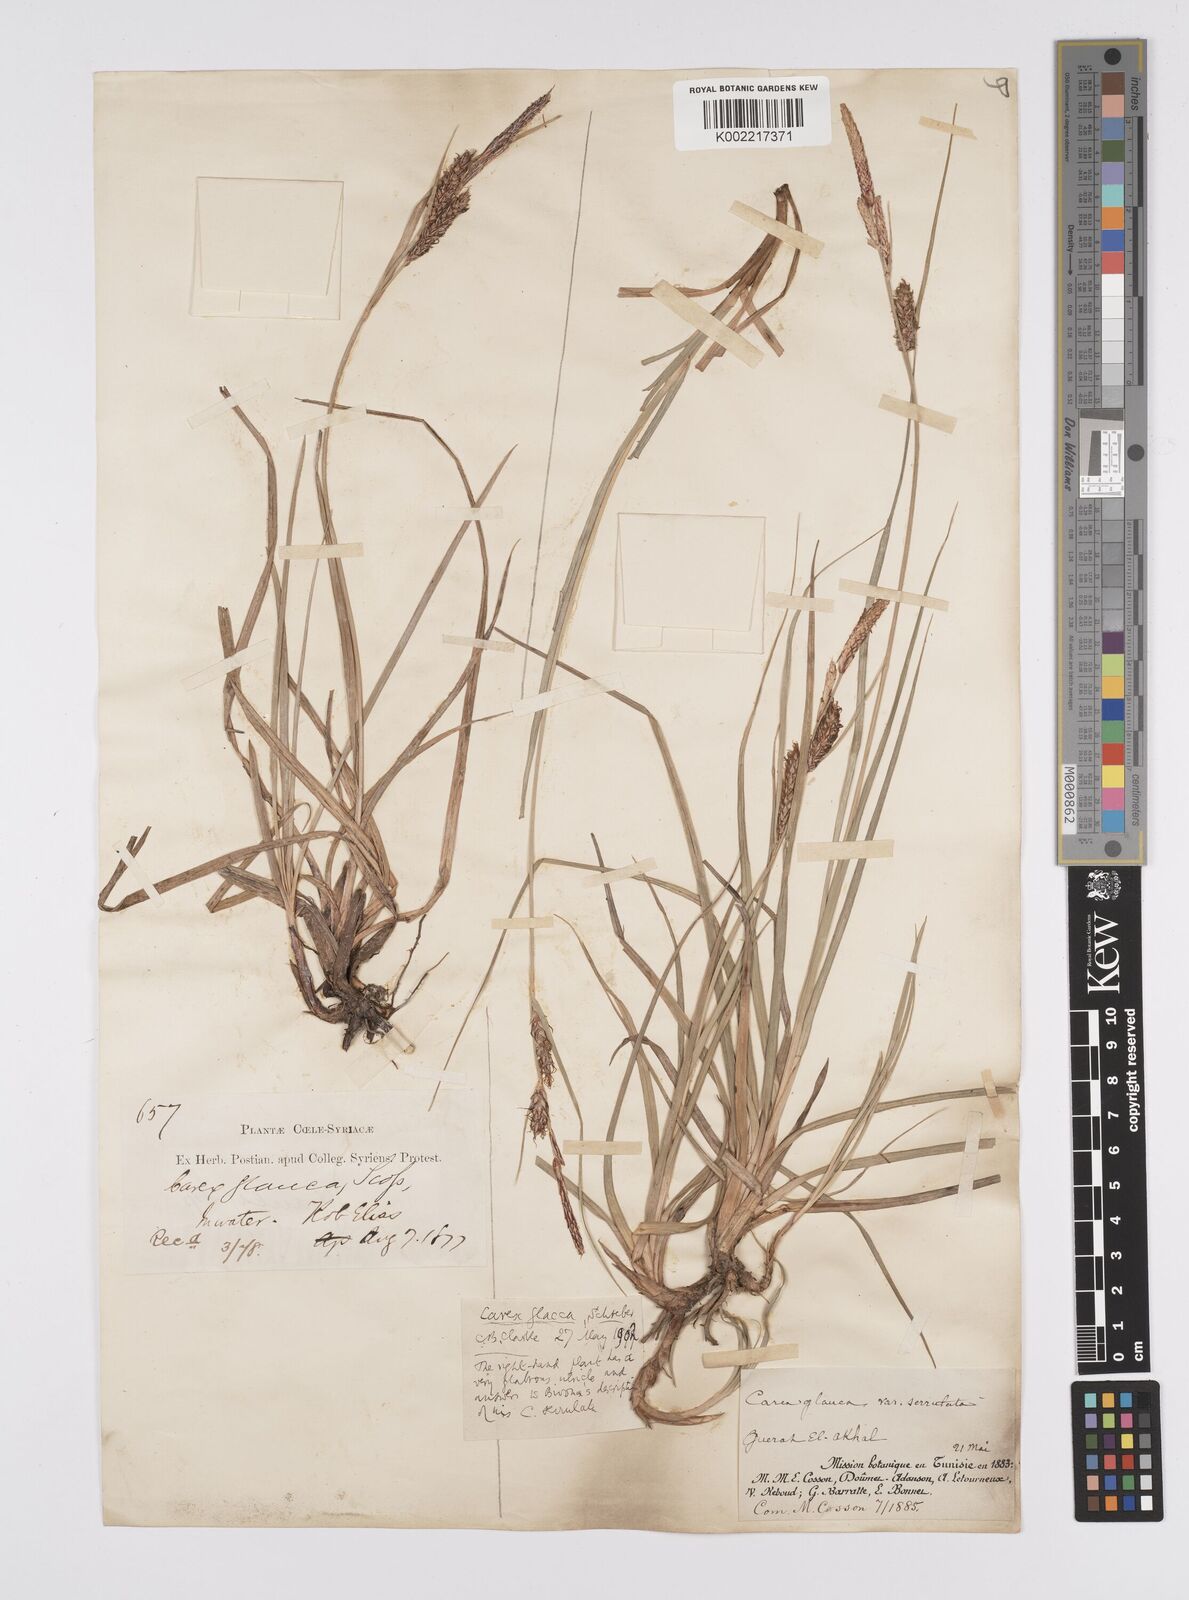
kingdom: Plantae
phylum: Tracheophyta
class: Liliopsida
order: Poales
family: Cyperaceae
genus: Carex
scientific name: Carex flacca
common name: Glaucous sedge
